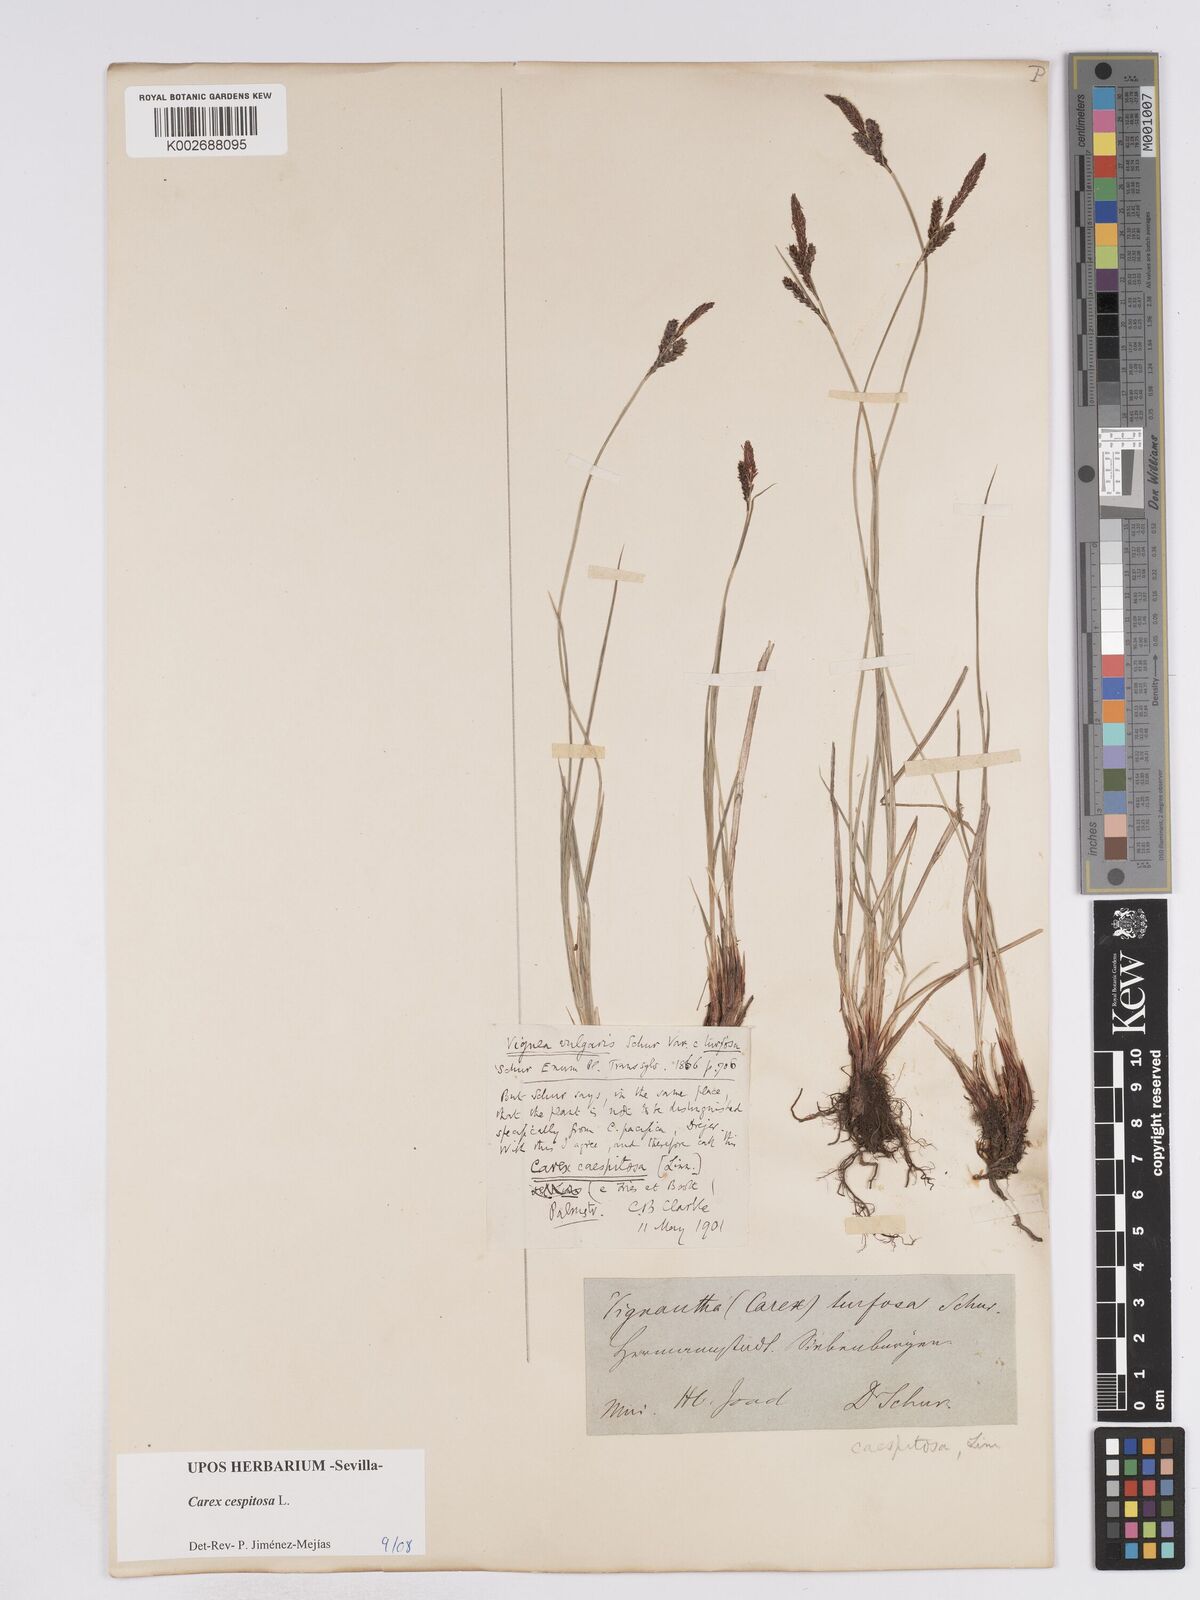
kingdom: Plantae
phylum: Tracheophyta
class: Liliopsida
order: Poales
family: Cyperaceae
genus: Carex
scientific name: Carex
